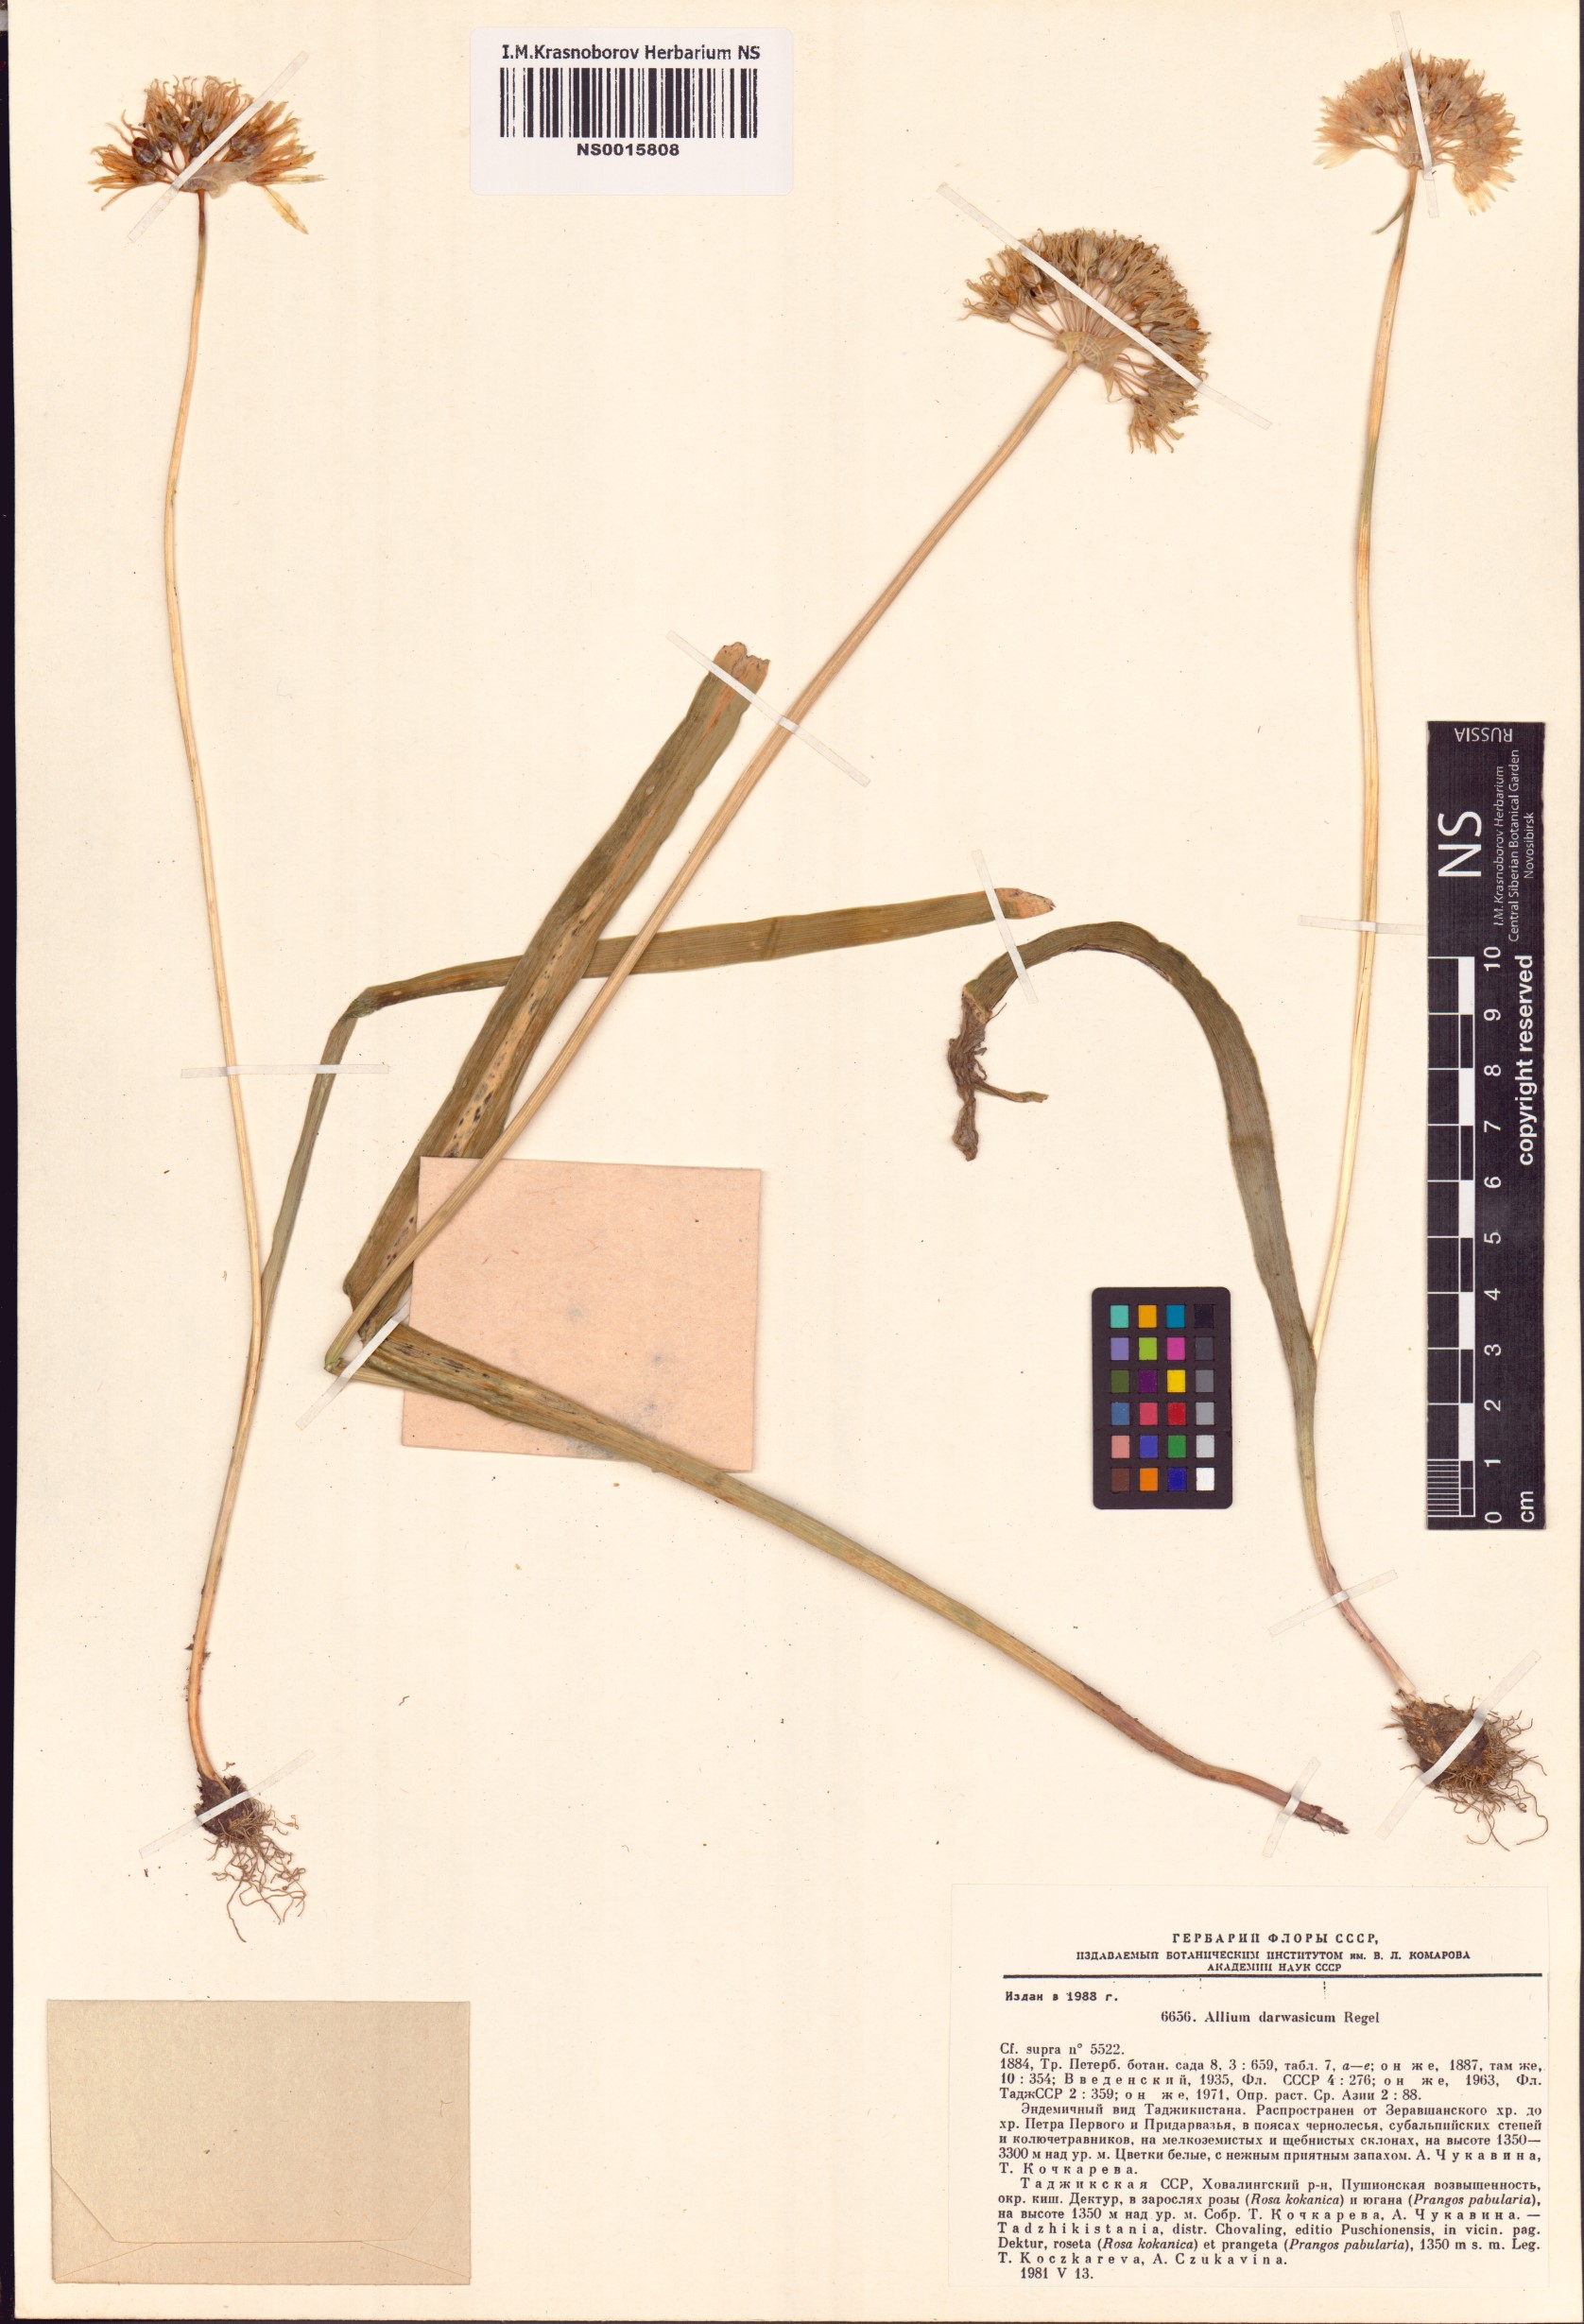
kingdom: Plantae
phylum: Tracheophyta
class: Liliopsida
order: Asparagales
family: Amaryllidaceae
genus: Allium
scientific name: Allium darwasicum
